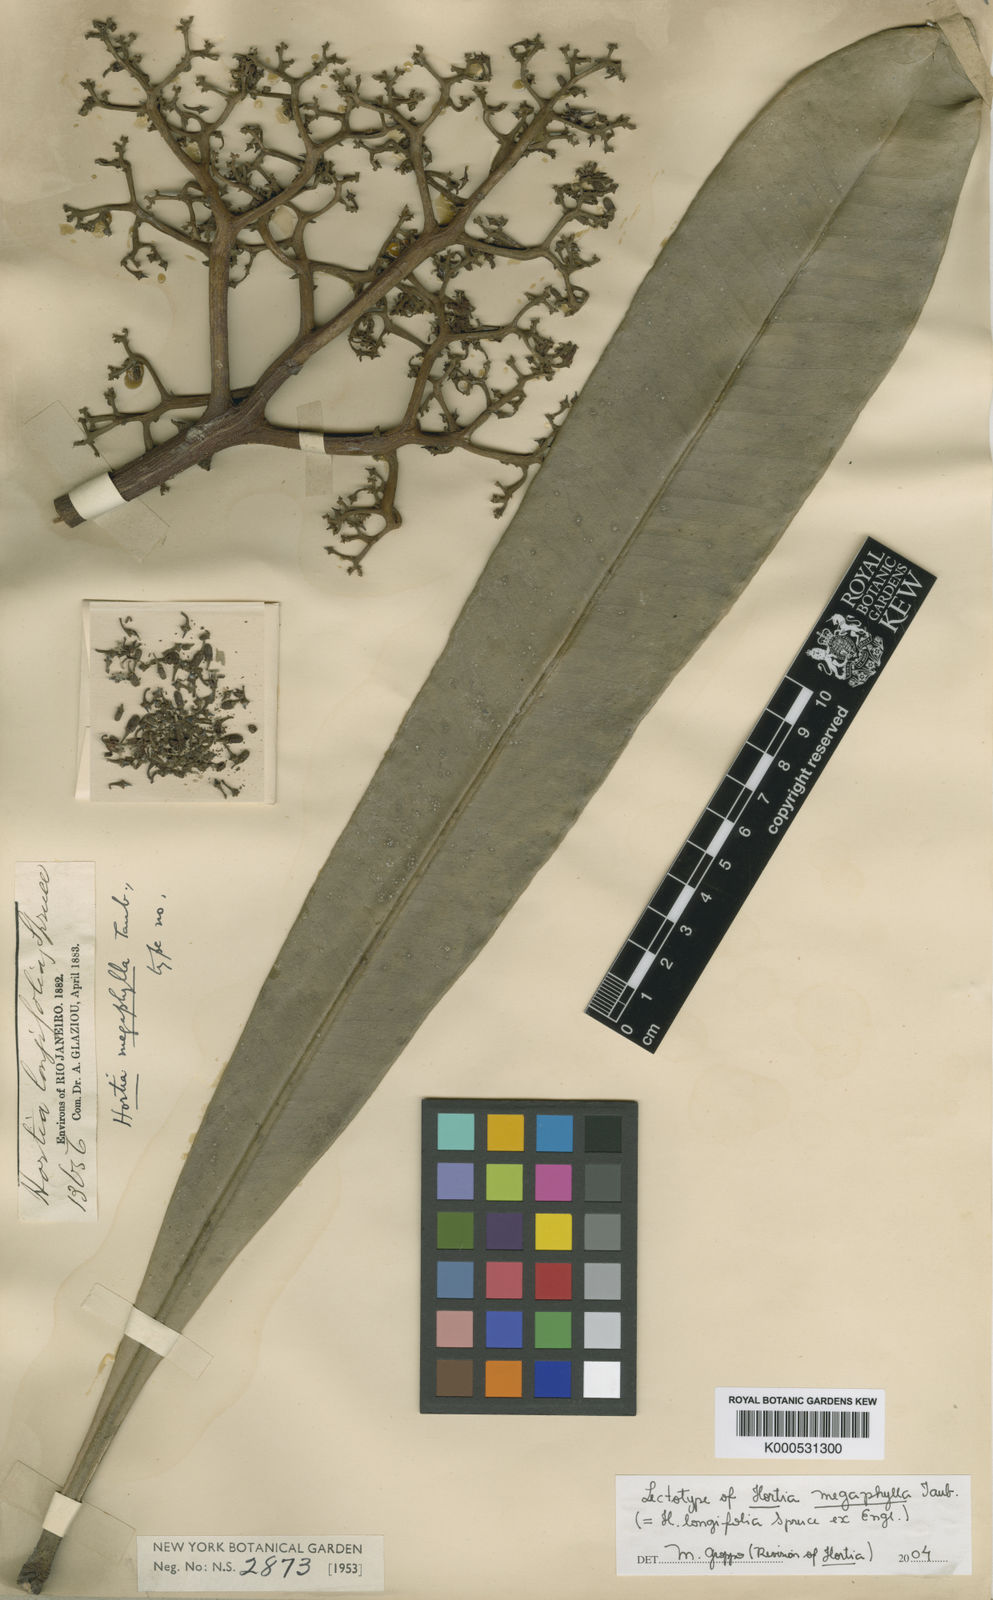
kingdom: Plantae
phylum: Tracheophyta
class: Magnoliopsida
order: Sapindales
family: Rutaceae
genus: Hortia
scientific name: Hortia longifolia
